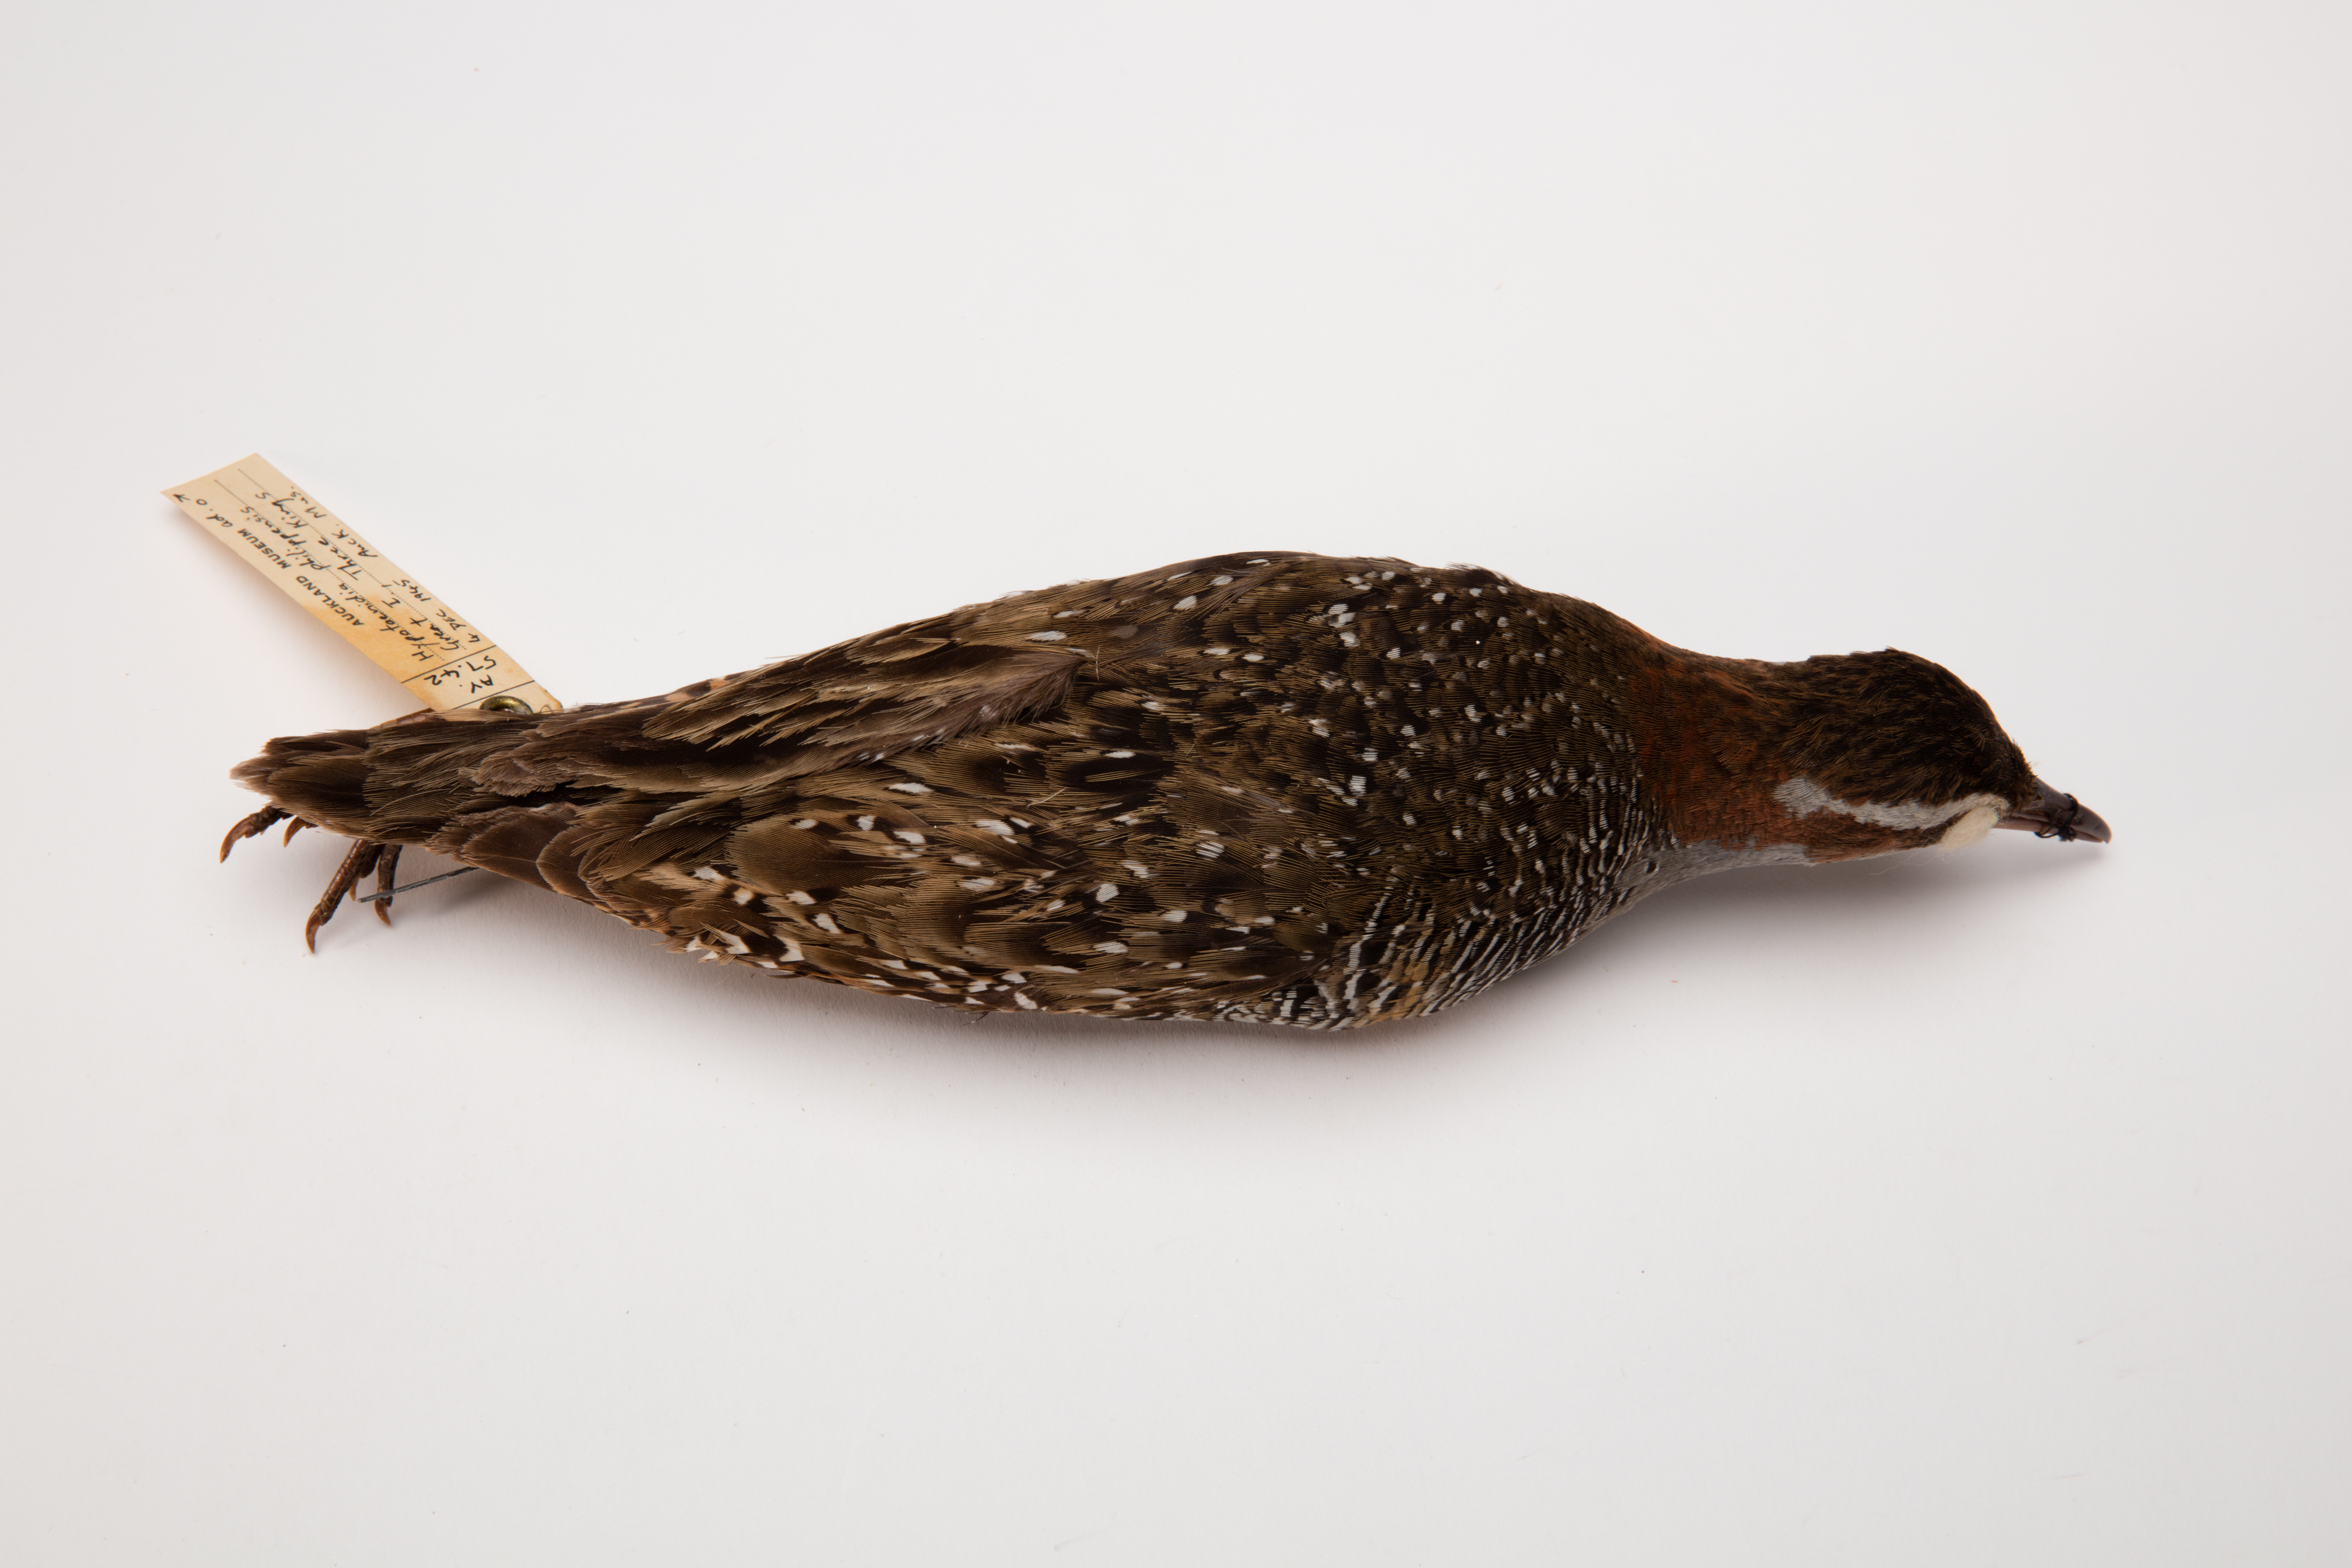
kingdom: Animalia
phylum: Chordata
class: Aves
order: Gruiformes
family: Rallidae
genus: Gallirallus
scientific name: Gallirallus philippensis
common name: Buff-banded rail
